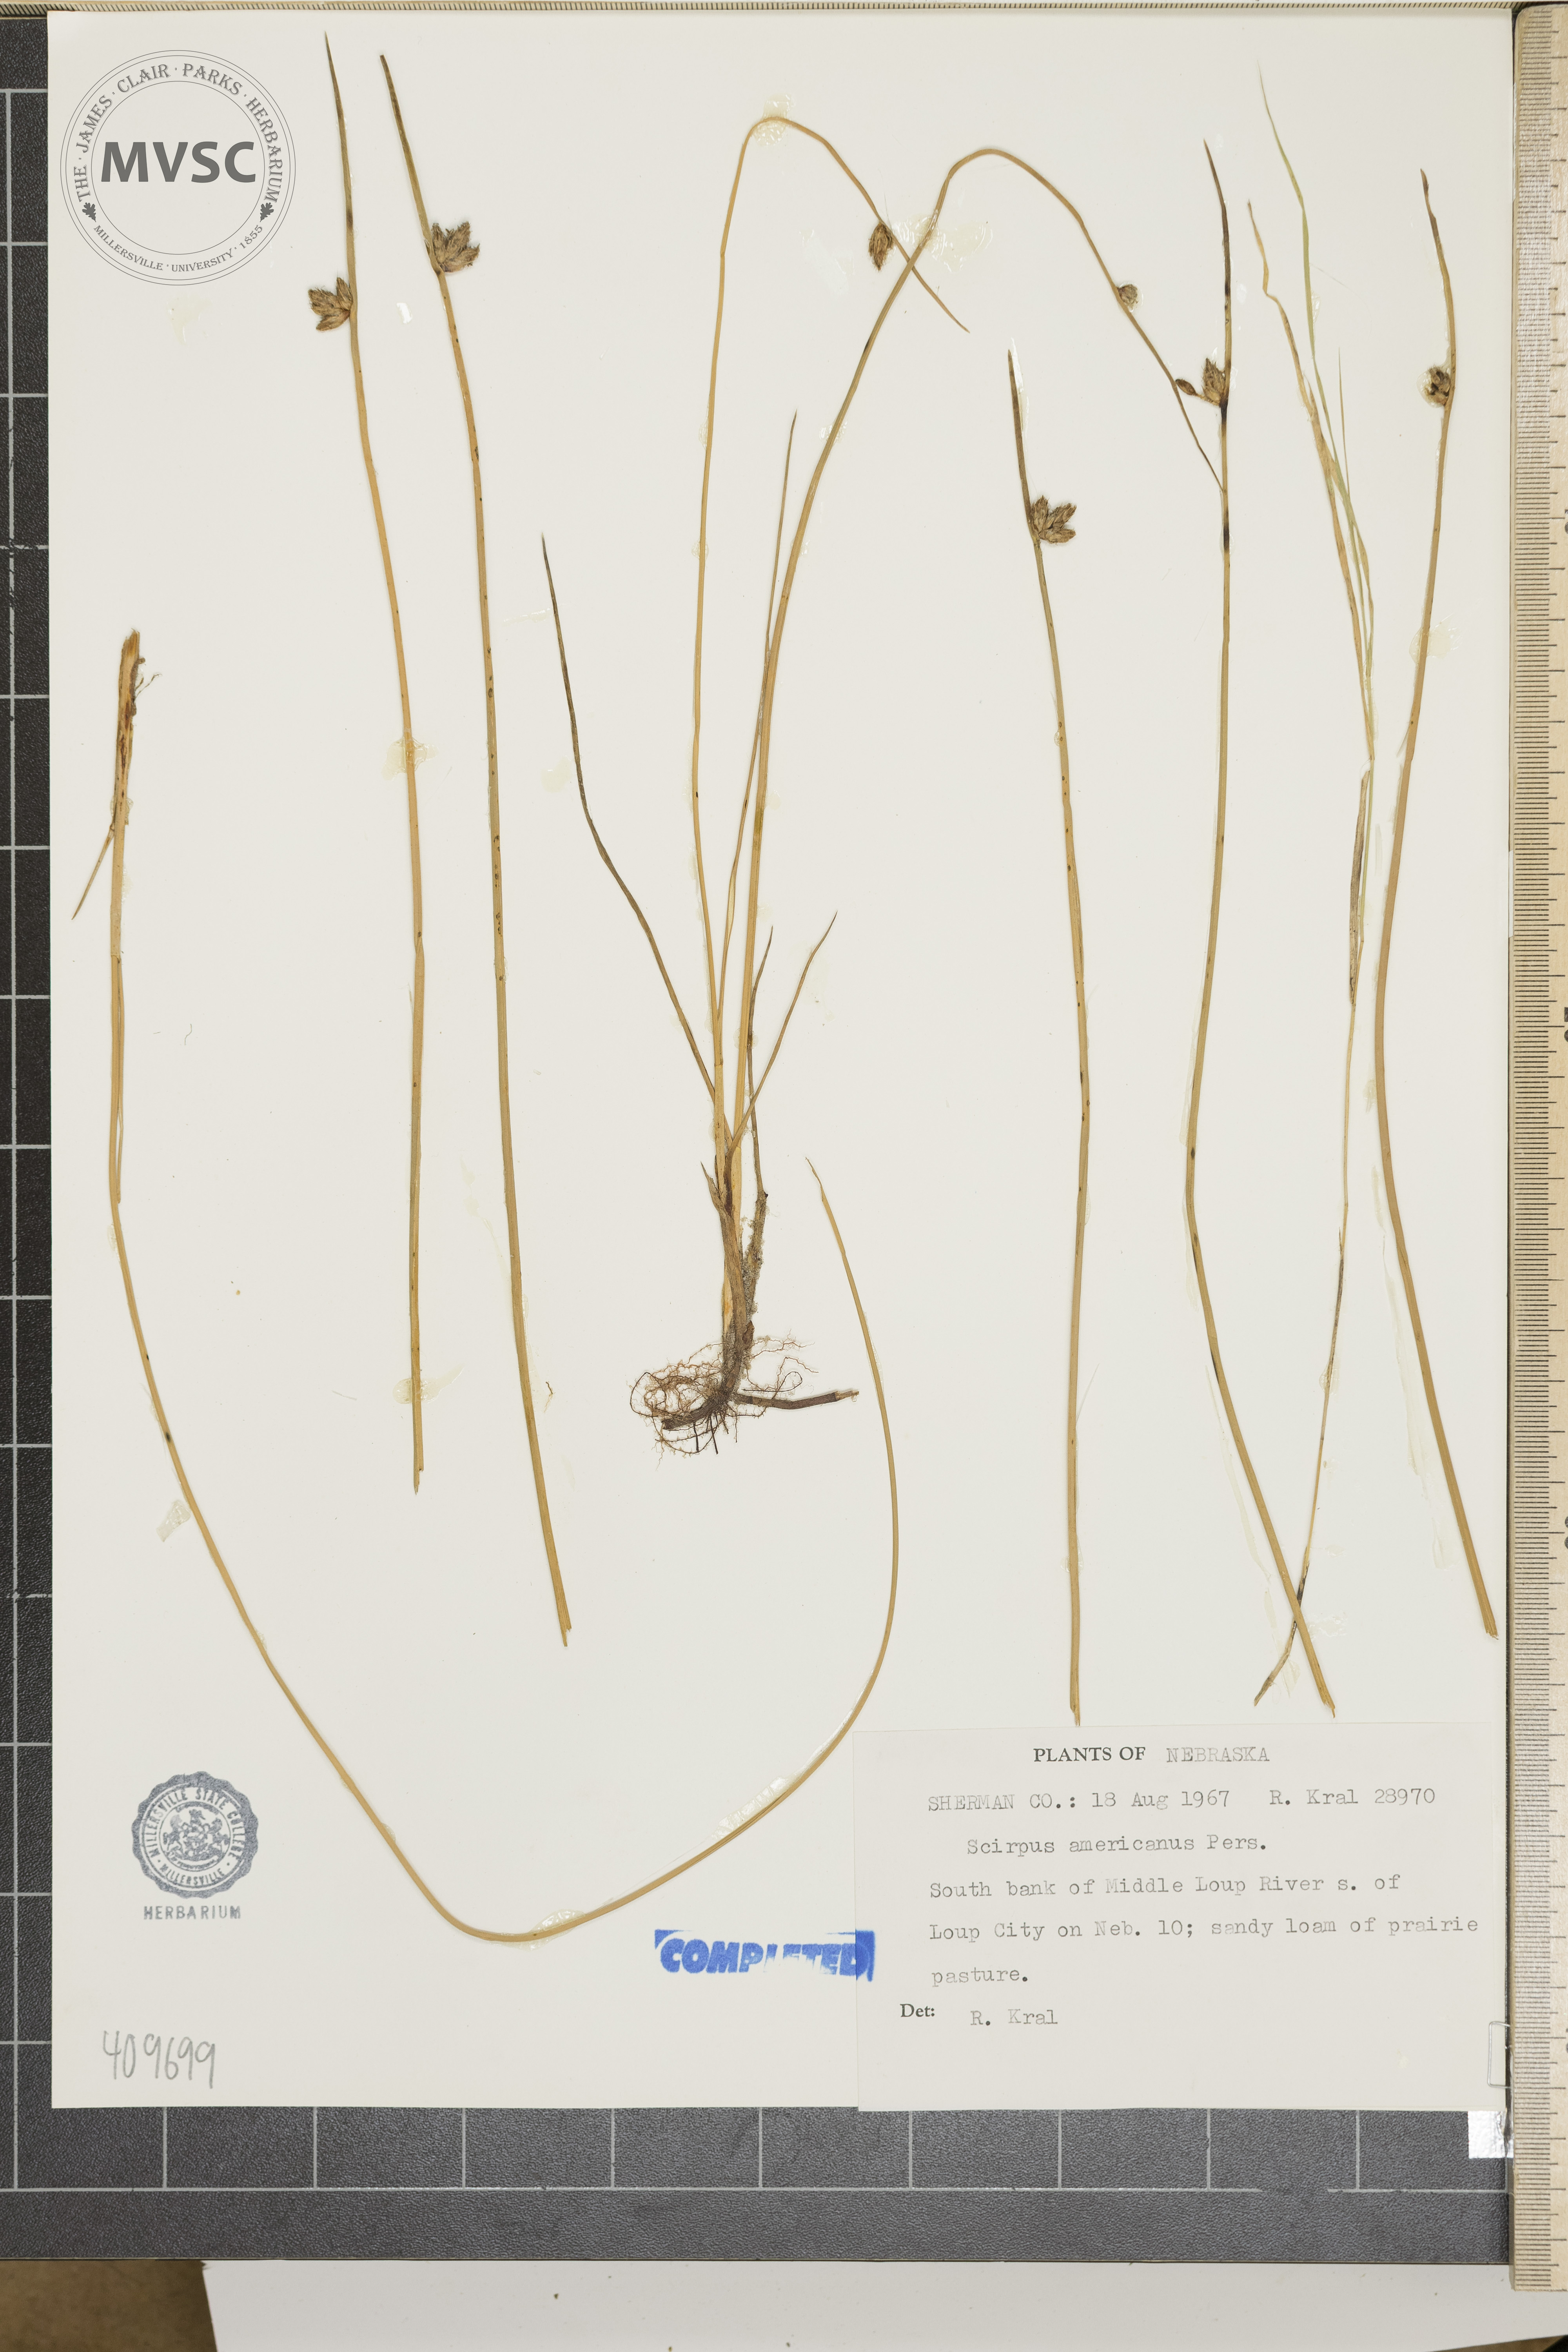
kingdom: Plantae
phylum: Tracheophyta
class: Liliopsida
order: Poales
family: Cyperaceae
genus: Scirpus
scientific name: Scirpus polyphyllus
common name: Leafy bulrush
